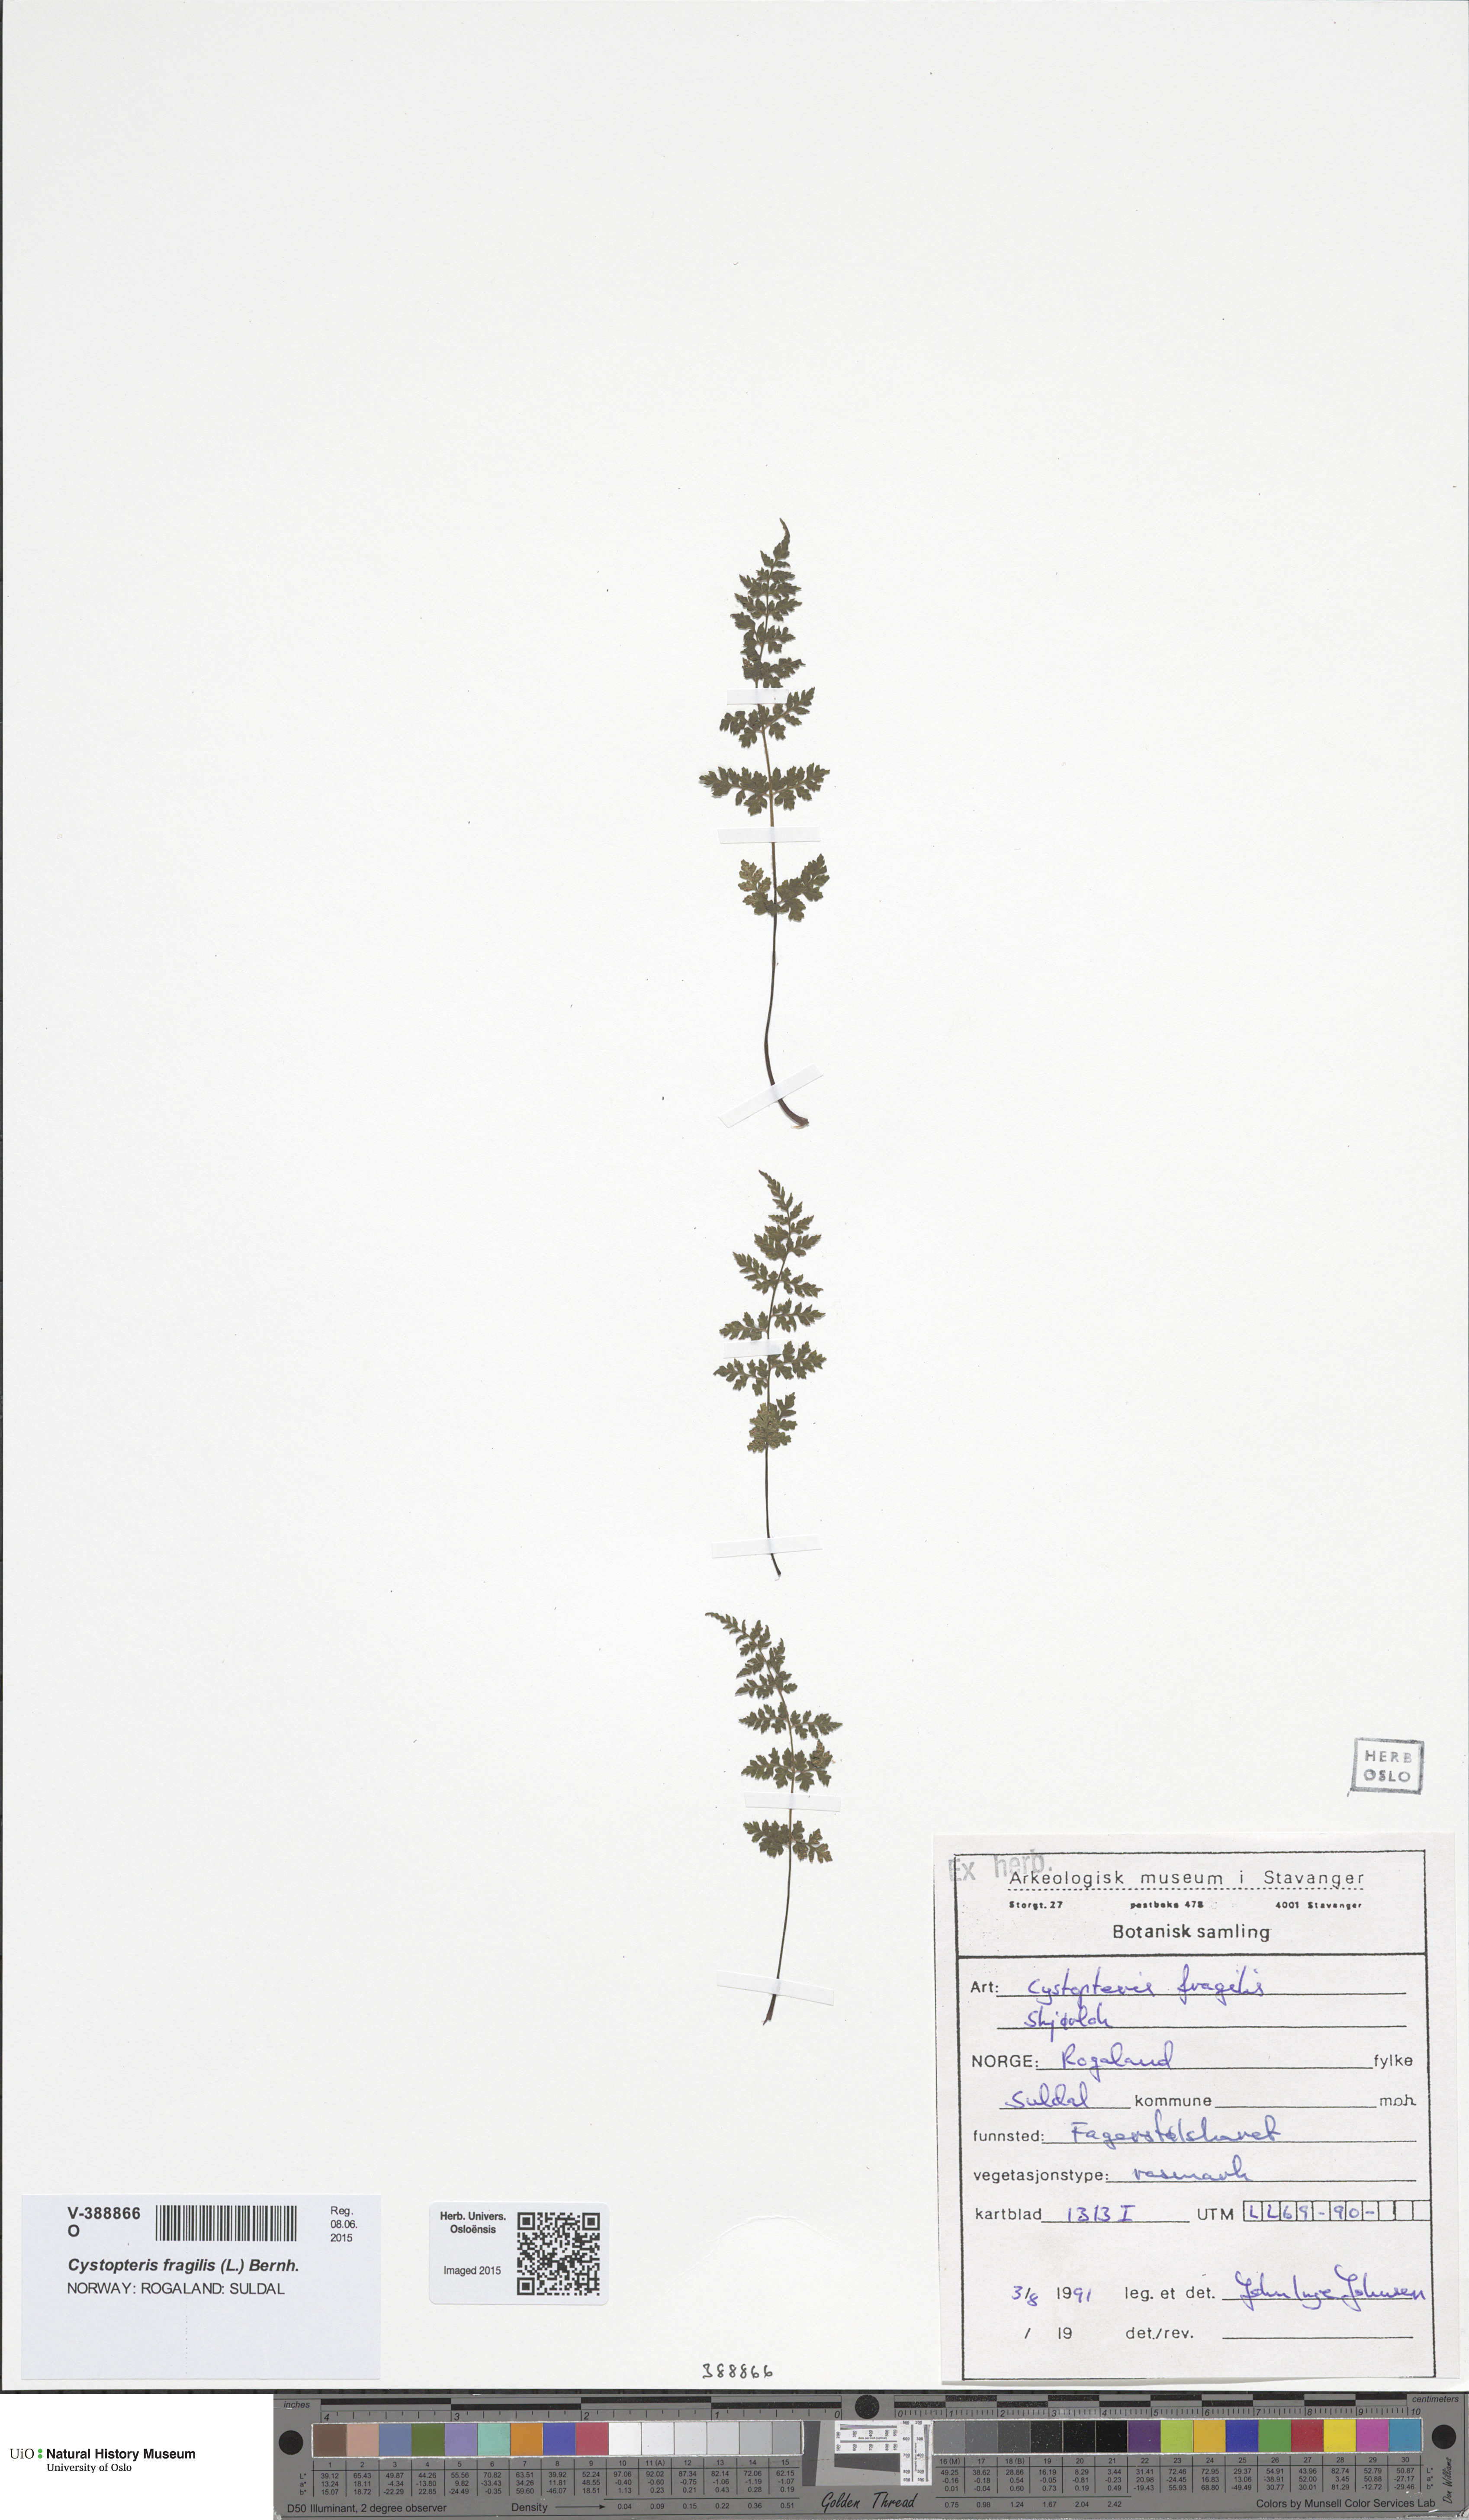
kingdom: Plantae
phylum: Tracheophyta
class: Polypodiopsida
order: Polypodiales
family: Cystopteridaceae
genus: Cystopteris
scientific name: Cystopteris fragilis
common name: Brittle bladder fern
